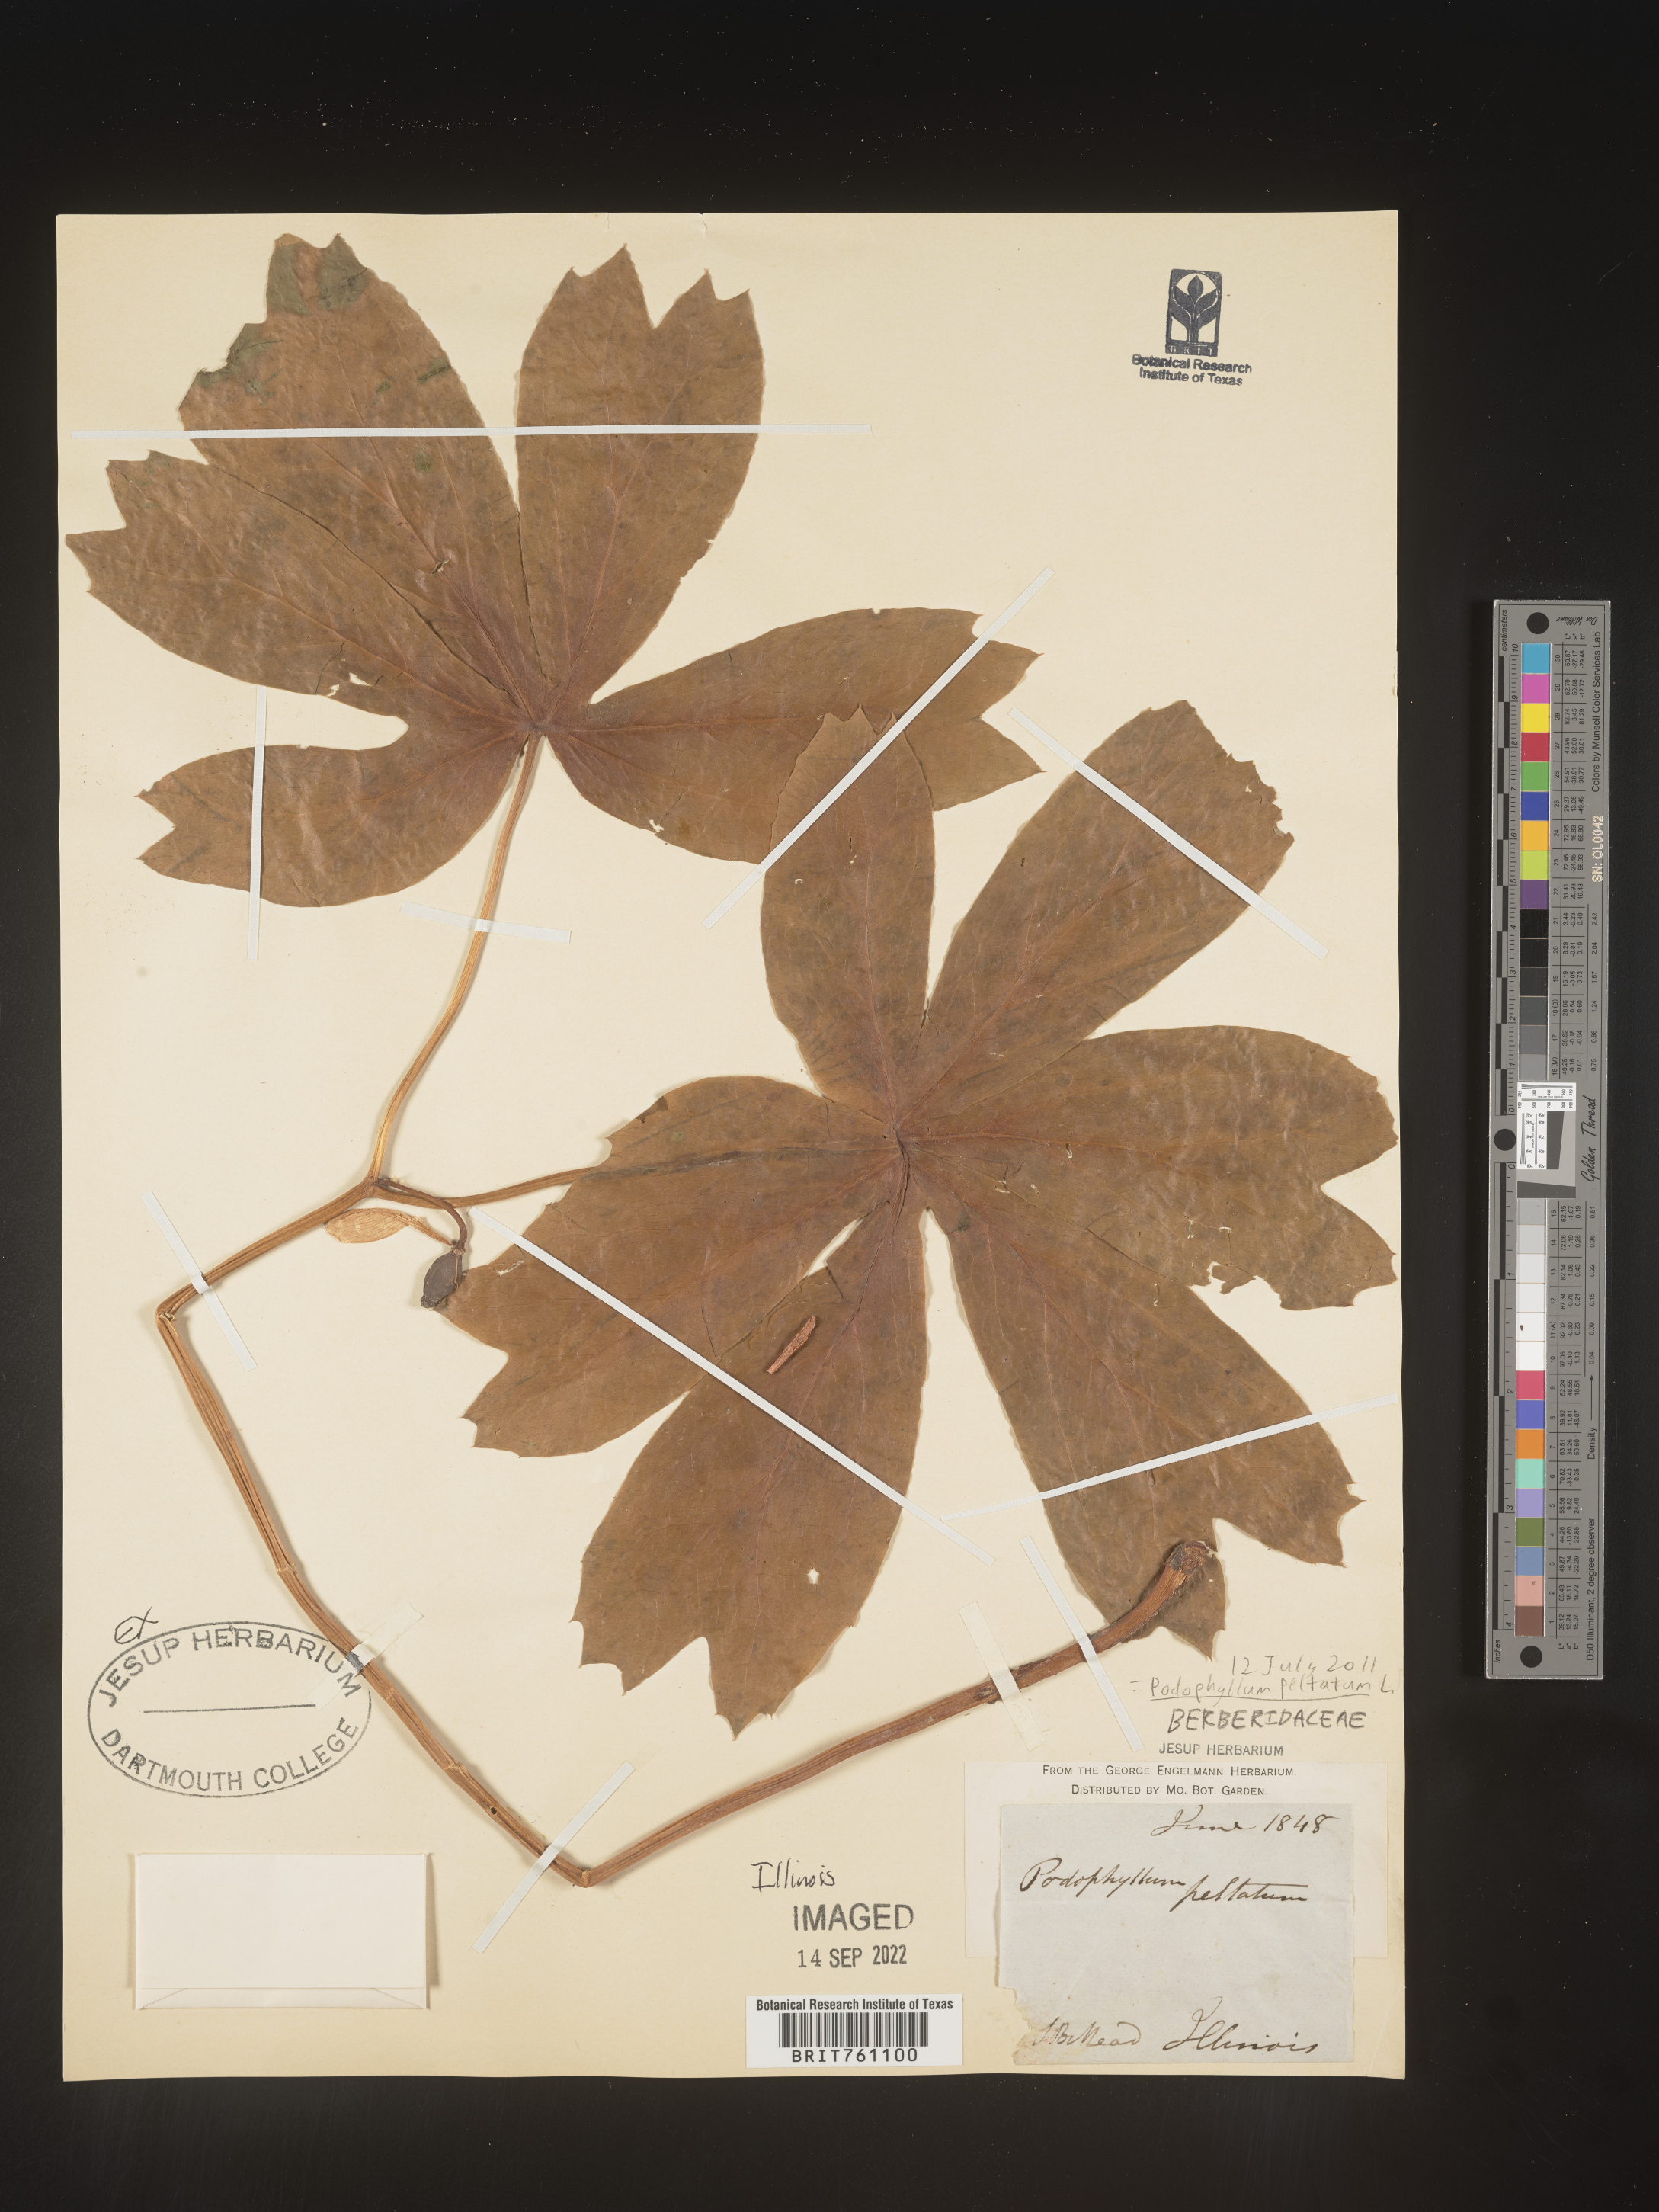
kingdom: Plantae
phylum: Tracheophyta
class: Magnoliopsida
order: Ranunculales
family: Berberidaceae
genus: Podophyllum
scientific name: Podophyllum peltatum
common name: Wild mandrake
